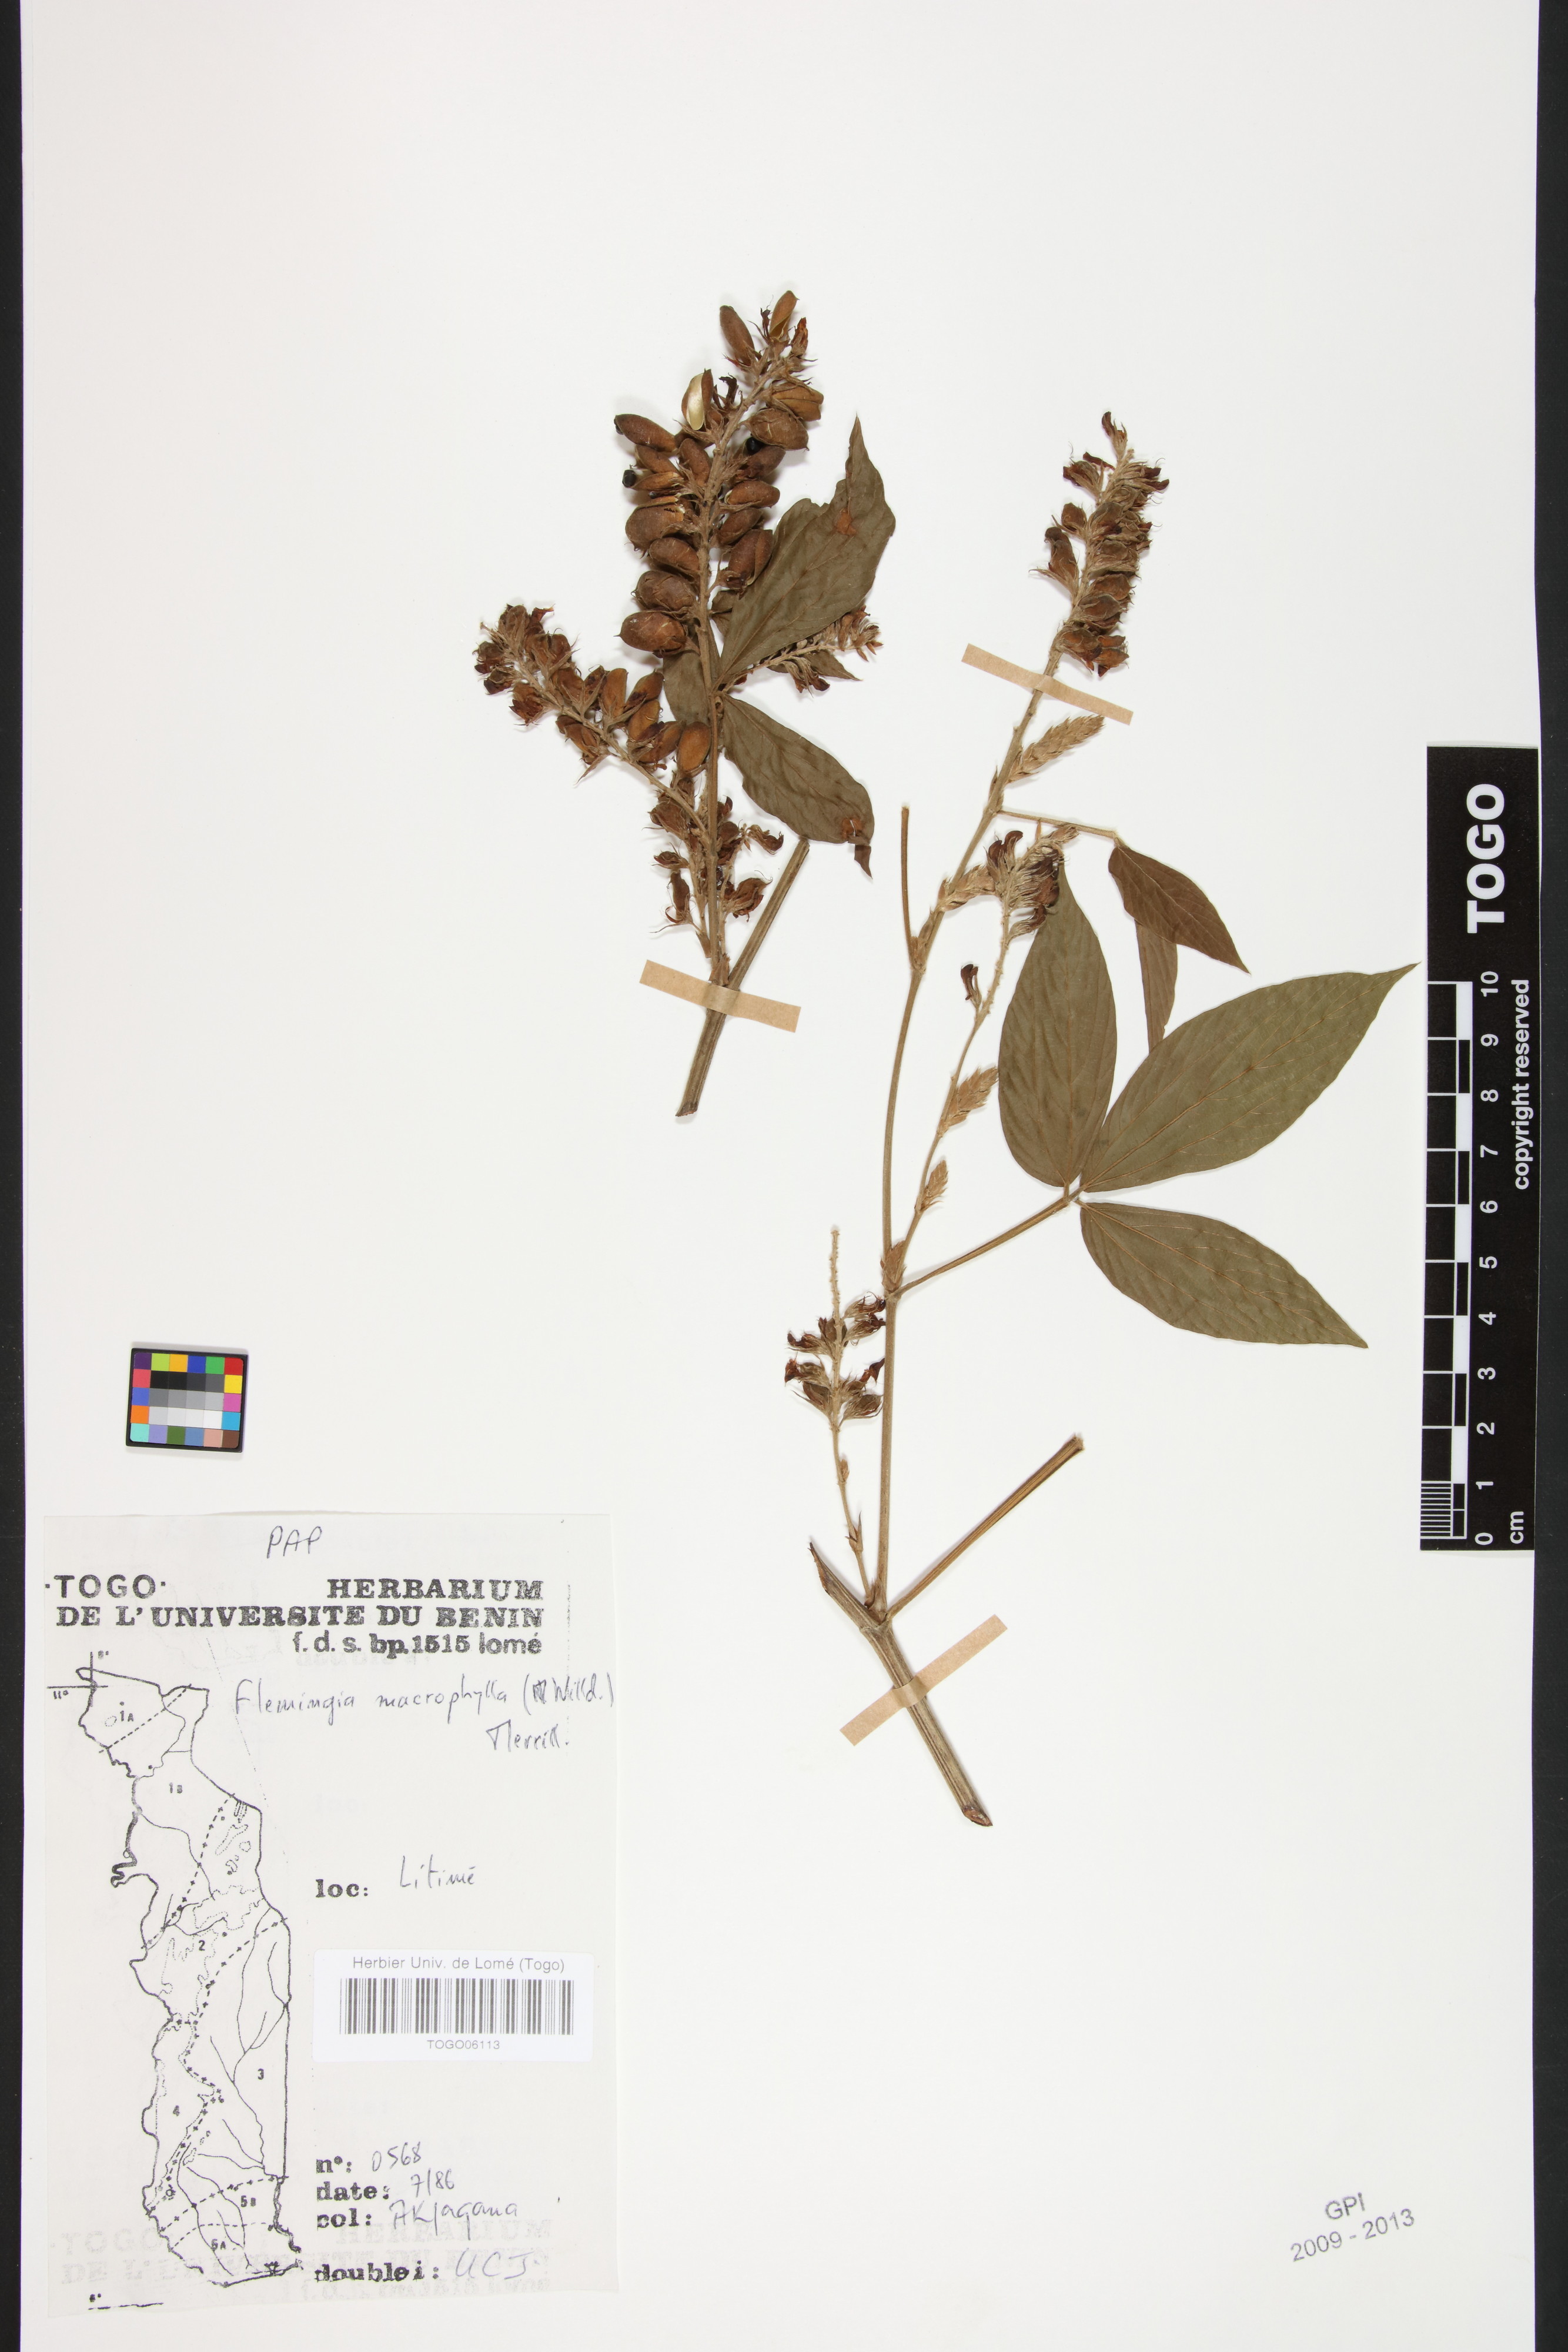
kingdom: Plantae
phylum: Tracheophyta
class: Magnoliopsida
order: Fabales
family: Fabaceae
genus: Flemingia
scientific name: Flemingia macrophylla
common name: Flemingia
